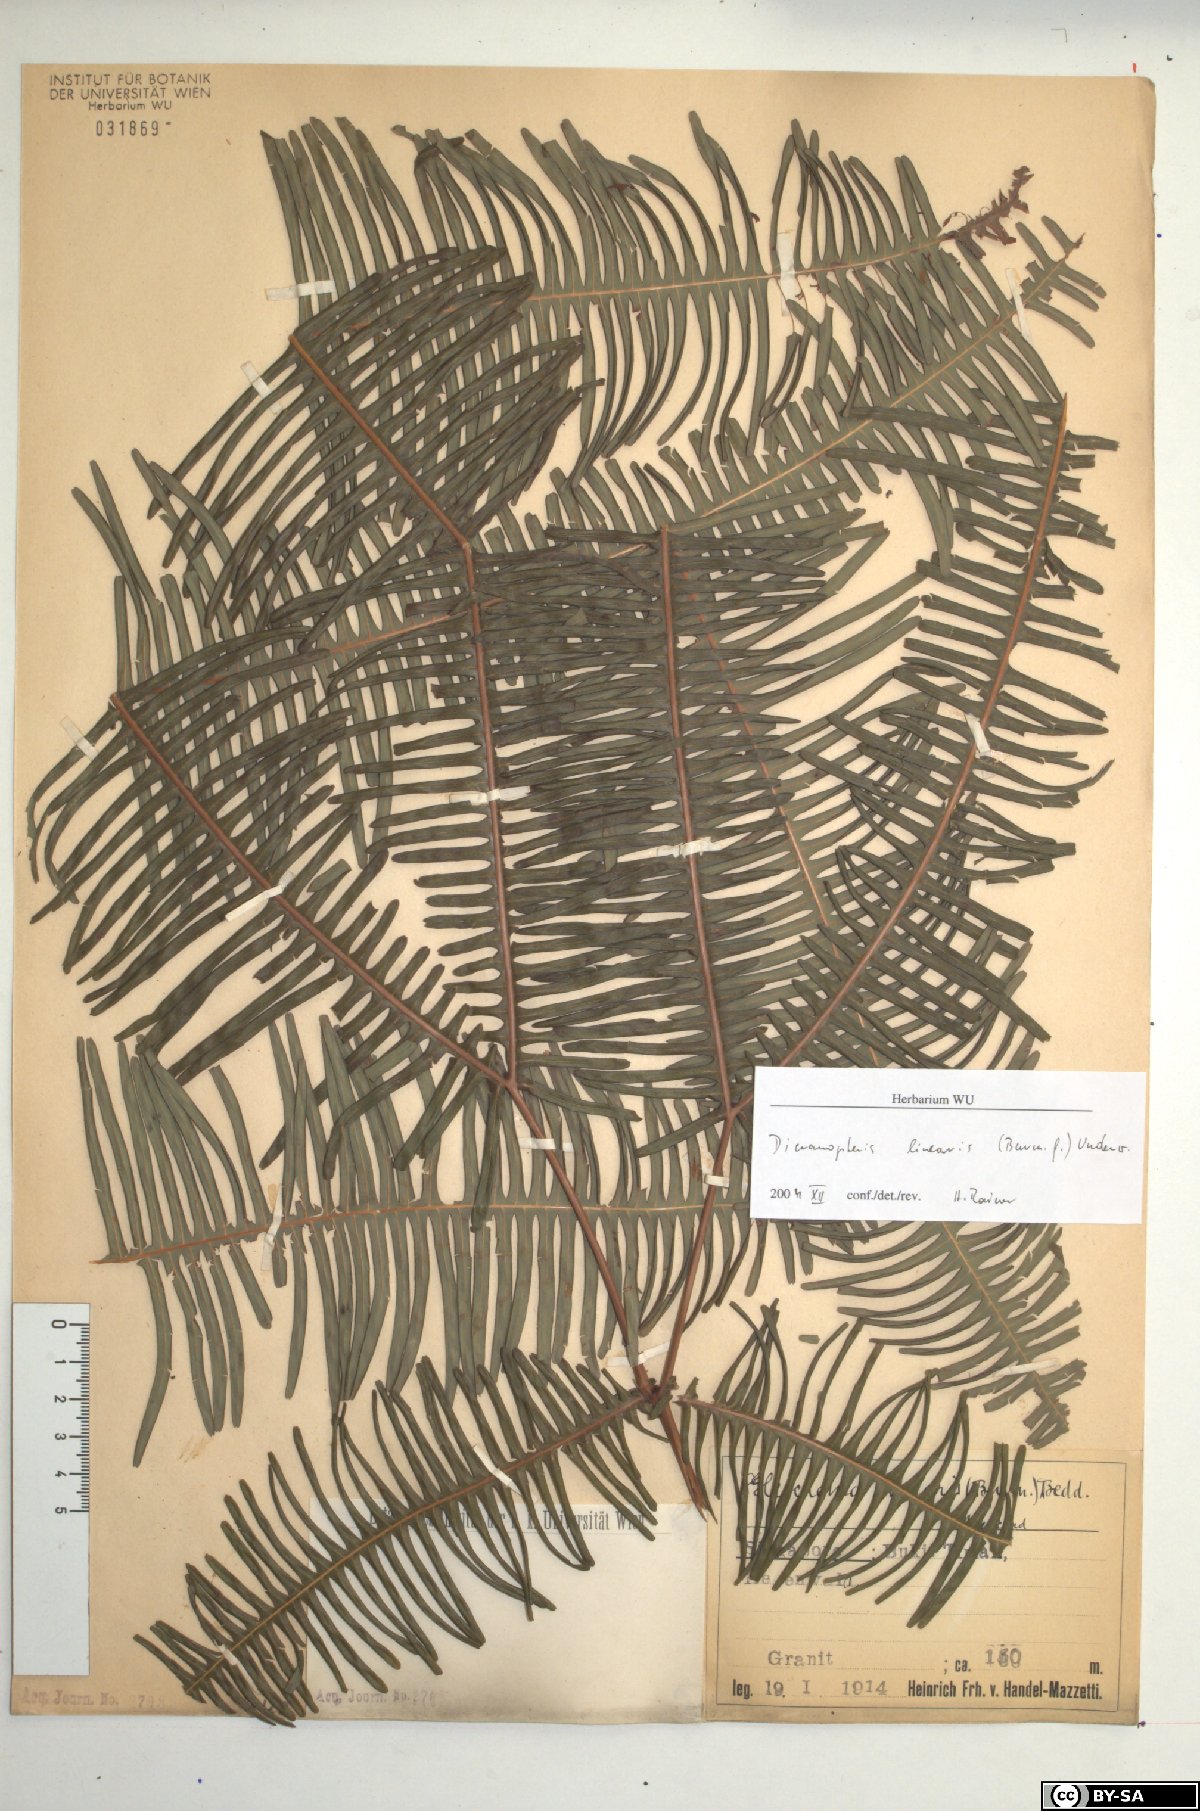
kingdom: Plantae
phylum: Tracheophyta
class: Polypodiopsida
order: Gleicheniales
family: Gleicheniaceae
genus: Dicranopteris
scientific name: Dicranopteris linearis
